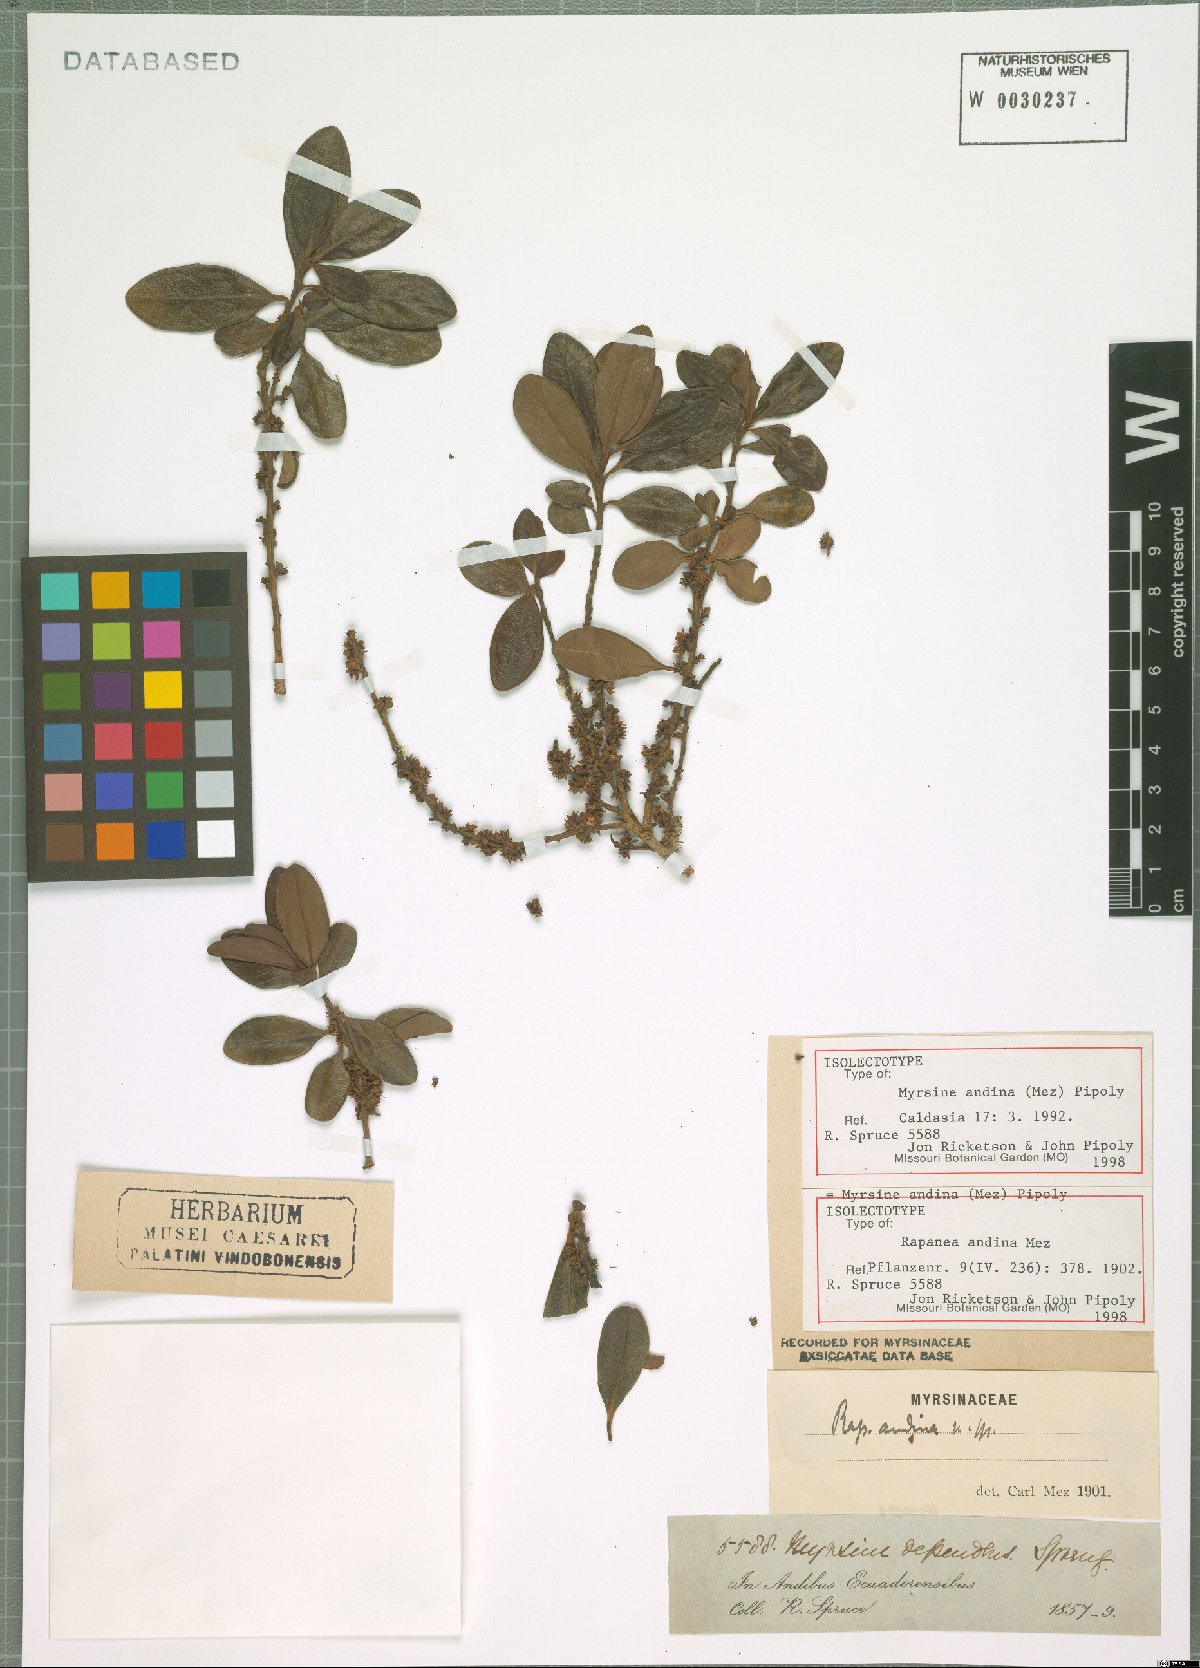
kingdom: Plantae
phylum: Tracheophyta
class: Magnoliopsida
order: Ericales
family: Primulaceae
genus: Myrsine
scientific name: Myrsine andina
